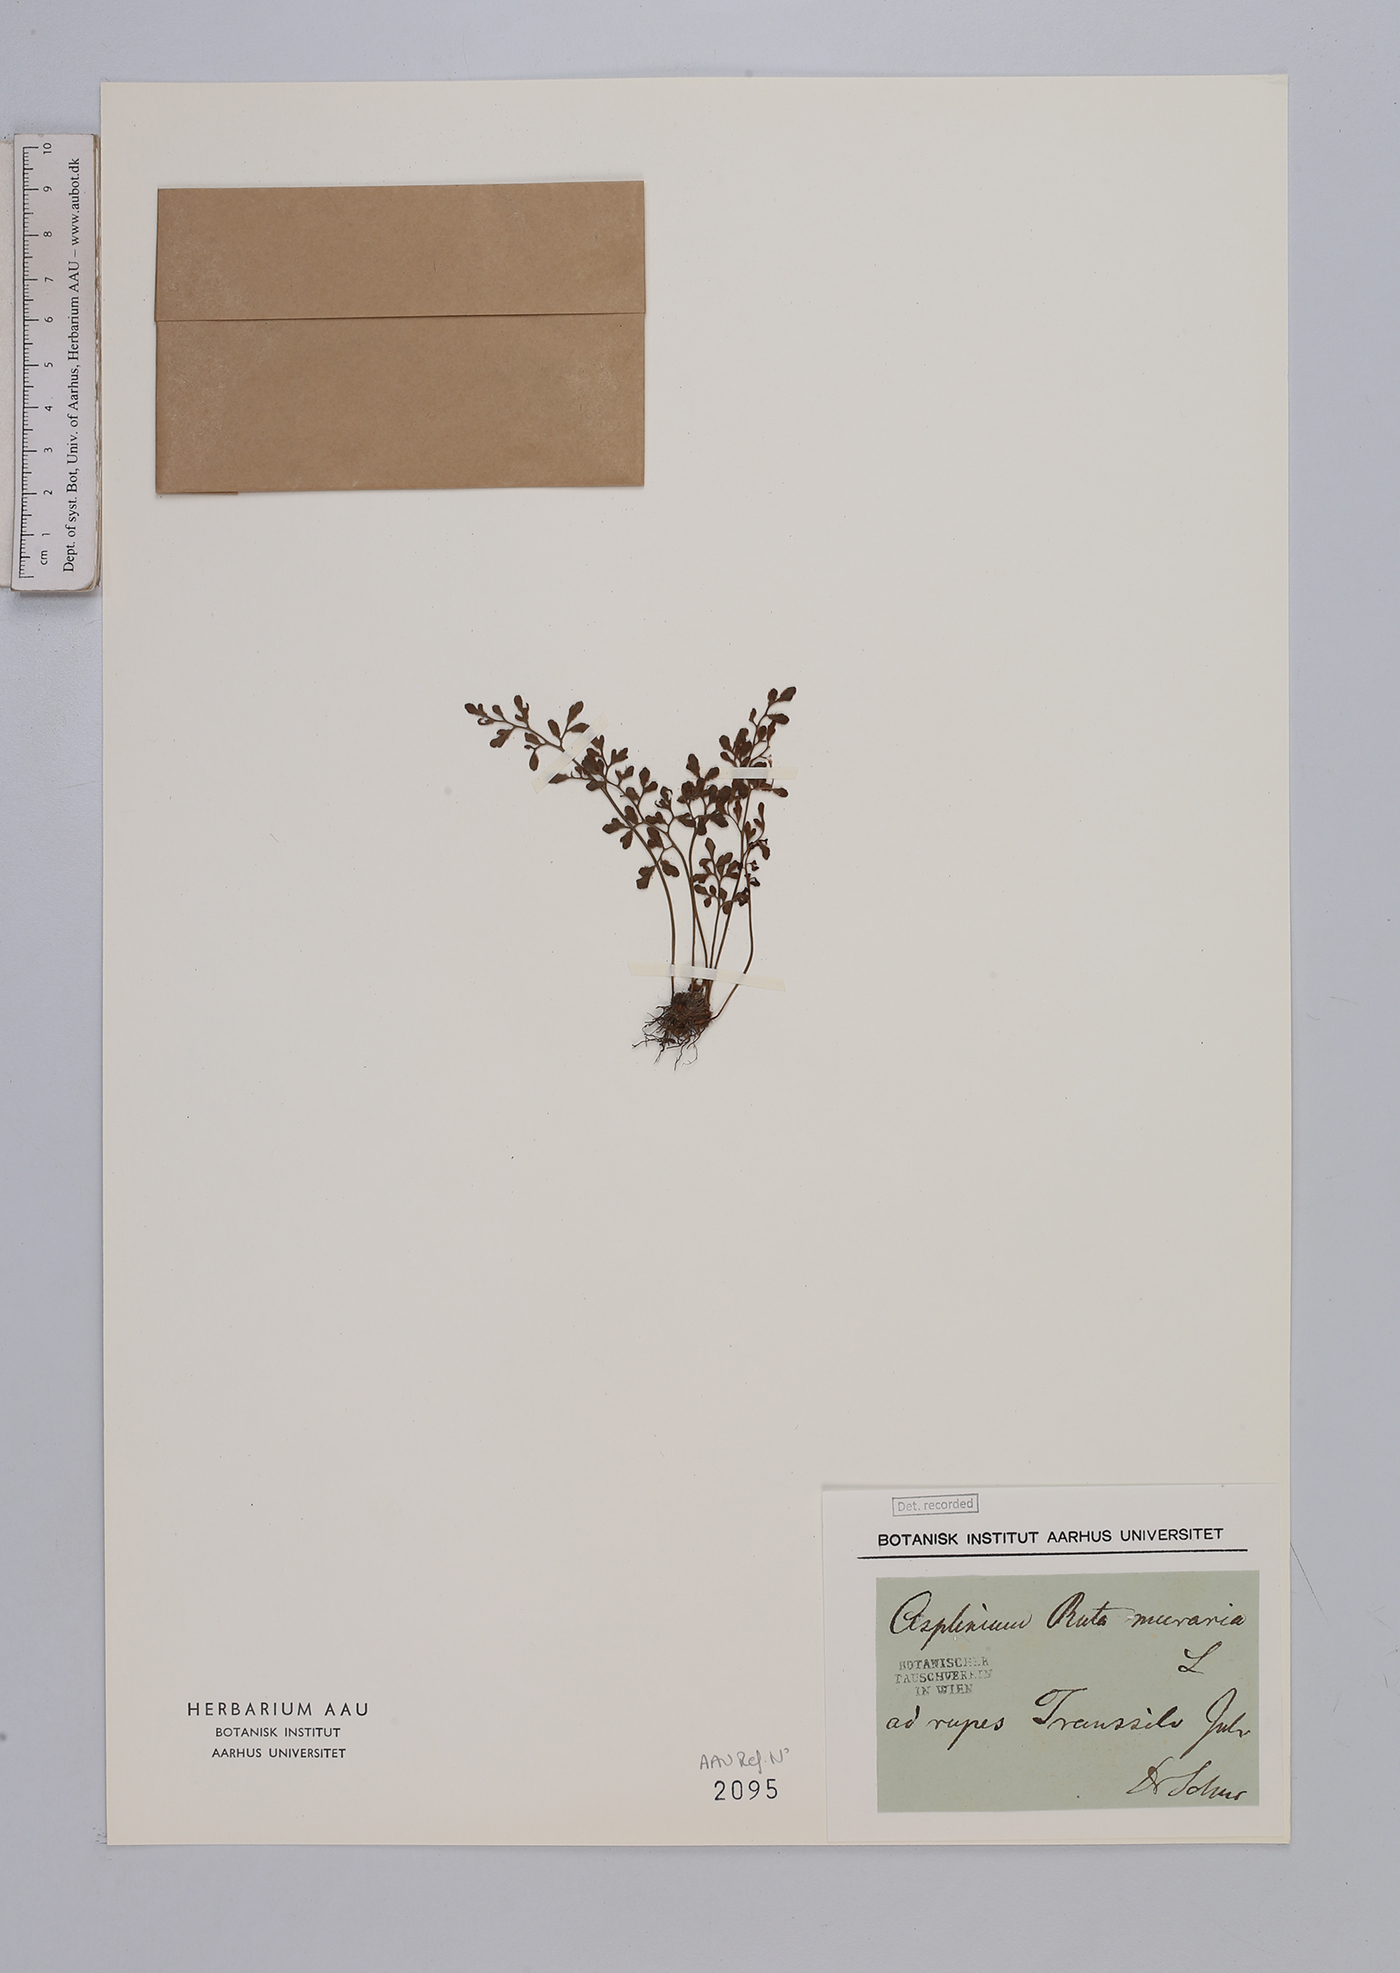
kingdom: Plantae
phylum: Tracheophyta
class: Polypodiopsida
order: Polypodiales
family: Aspleniaceae
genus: Asplenium
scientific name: Asplenium ruta-muraria
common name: Wall-rue
